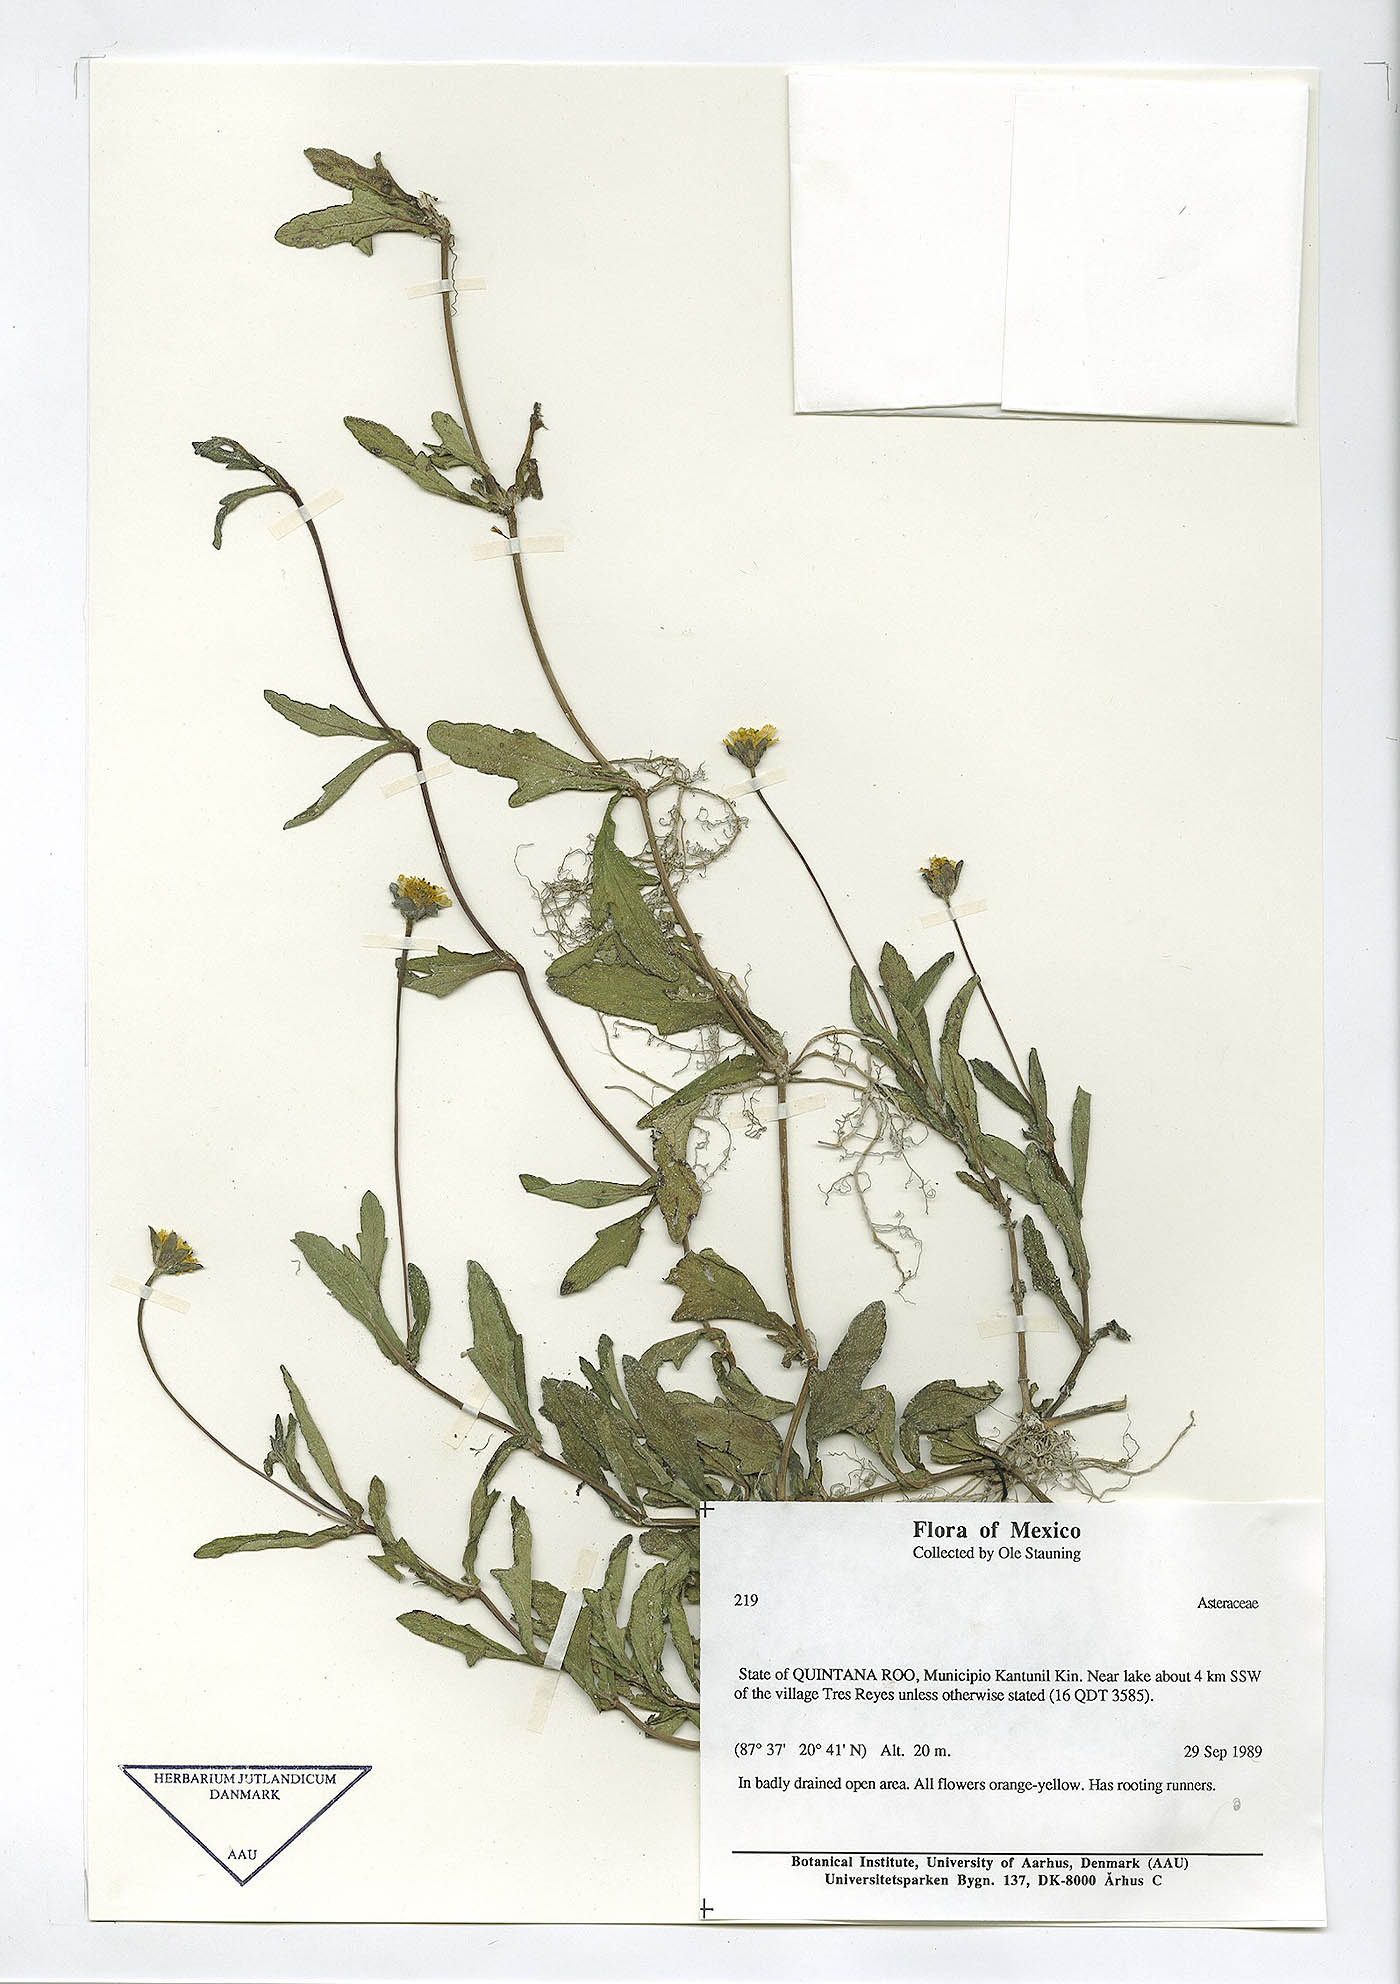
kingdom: Plantae
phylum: Tracheophyta
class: Magnoliopsida
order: Asterales
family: Asteraceae
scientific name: Asteraceae
